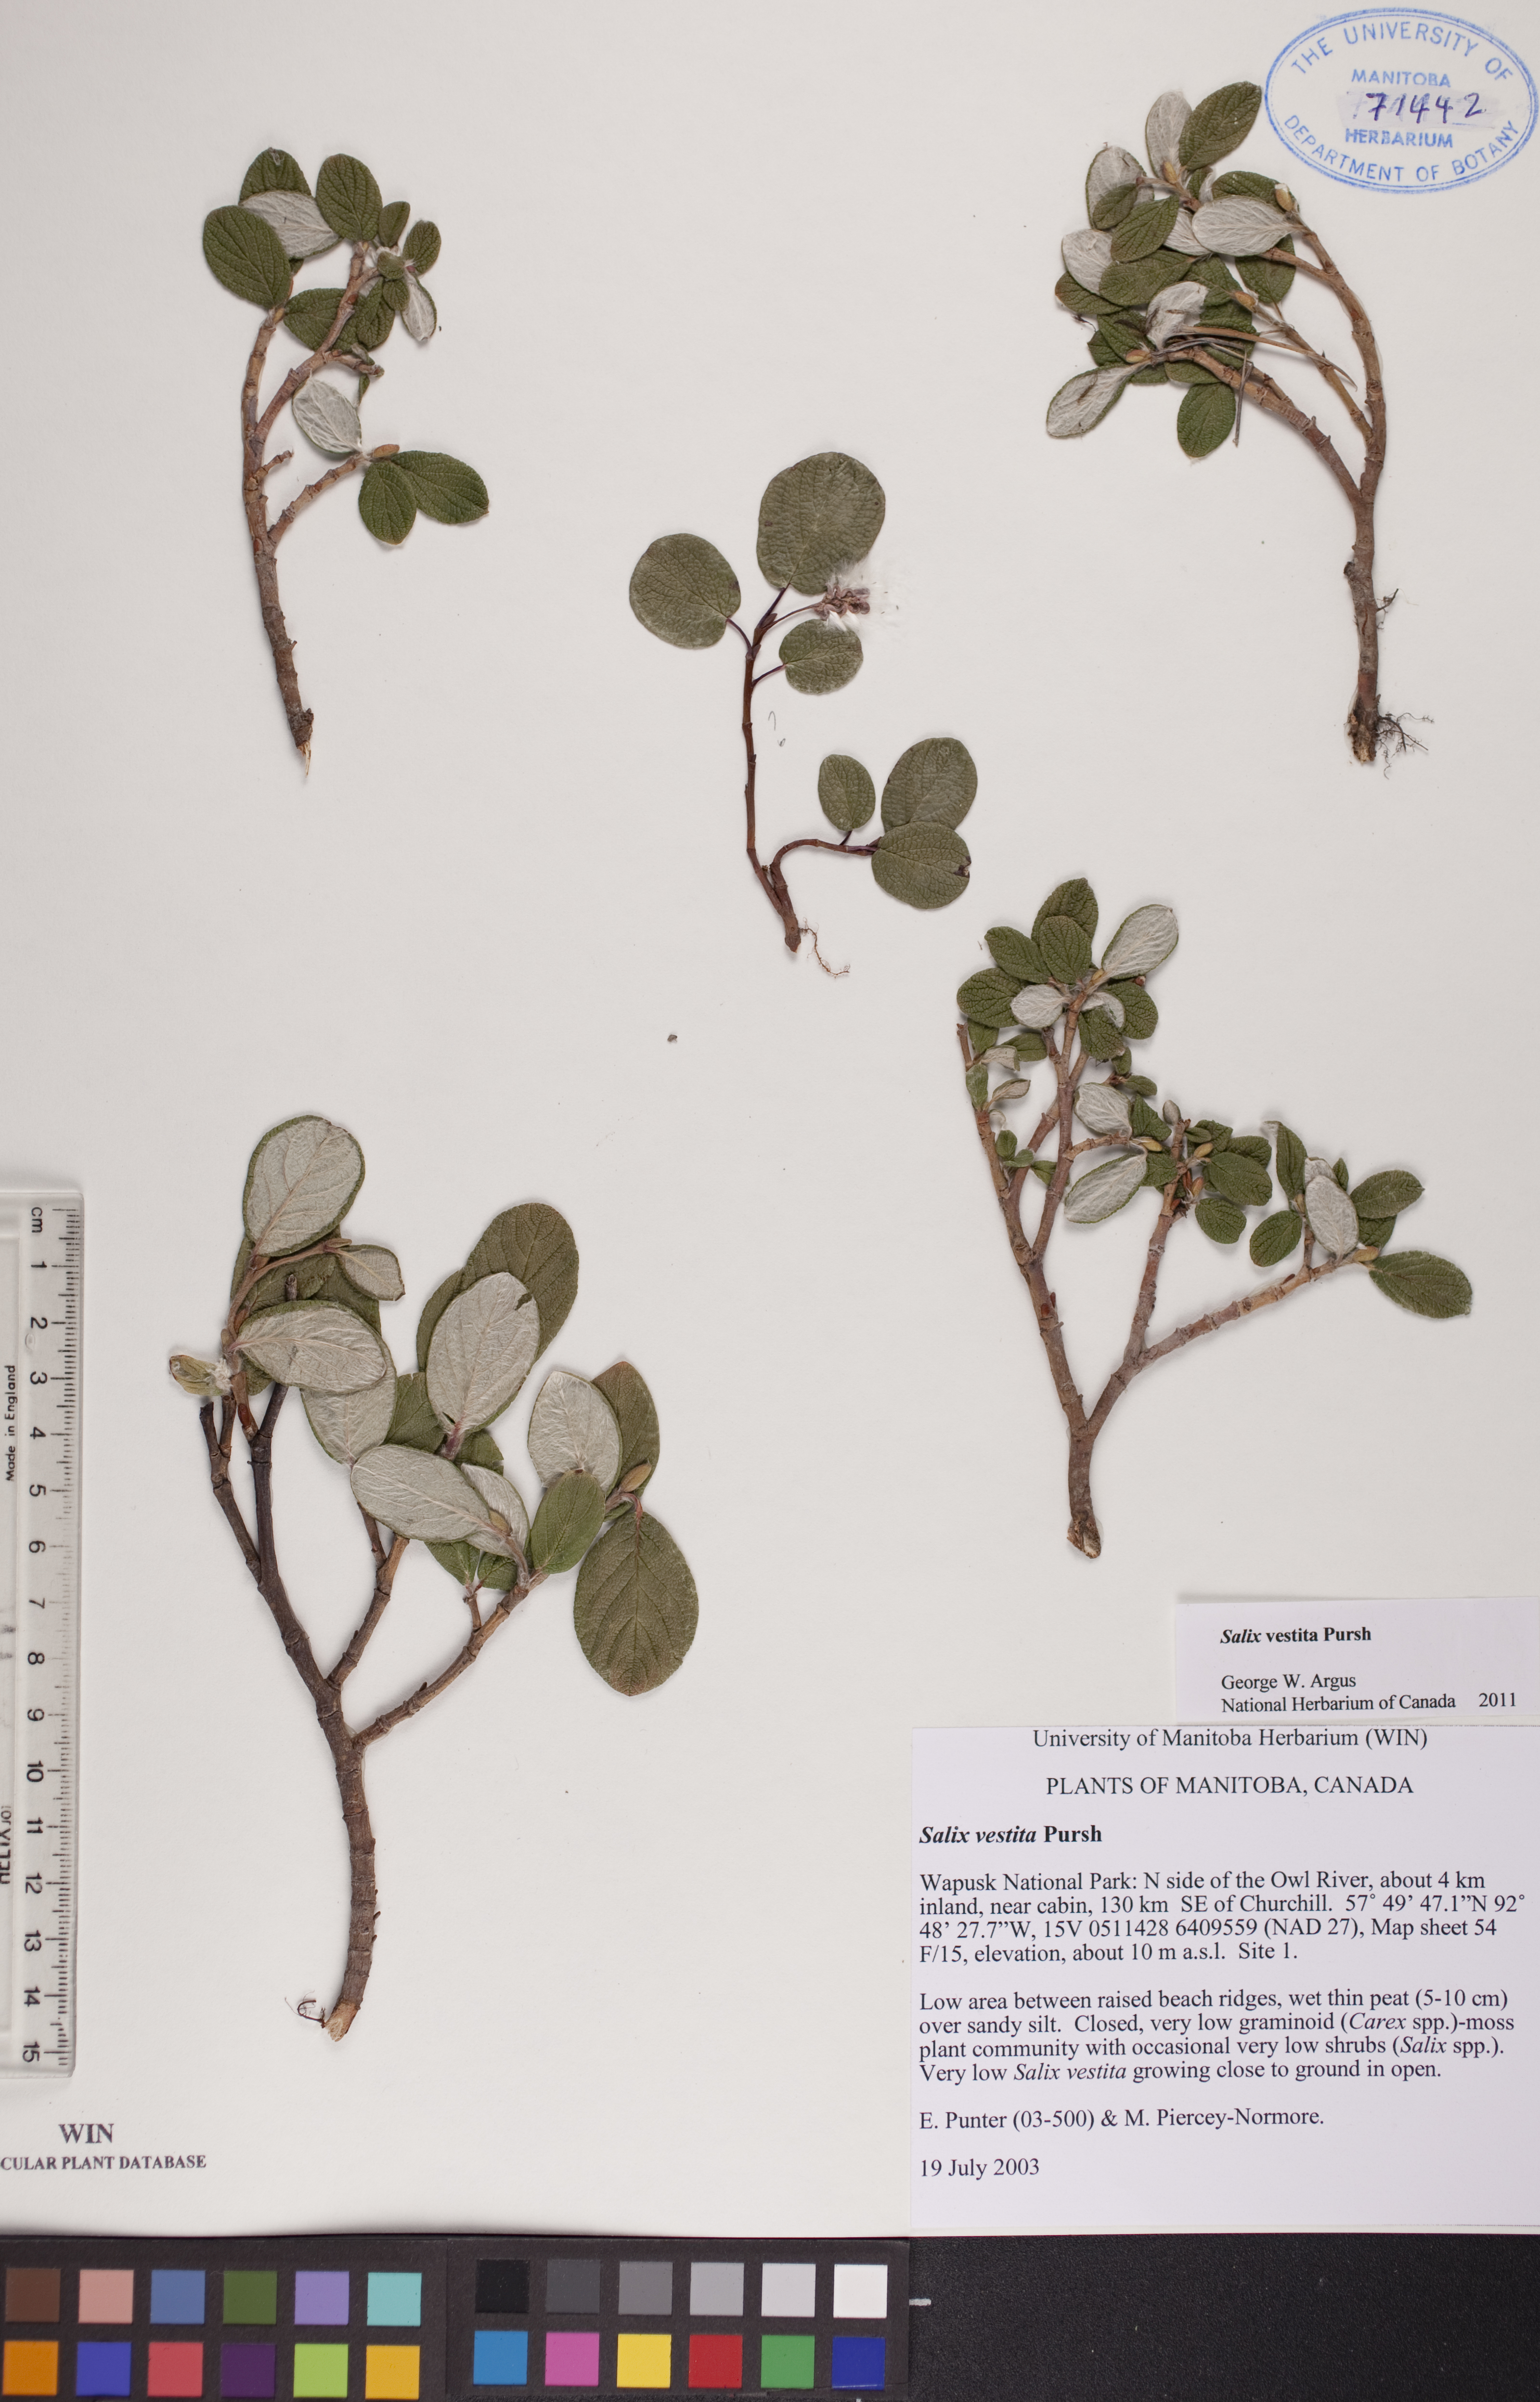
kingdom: Plantae
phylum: Tracheophyta
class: Magnoliopsida
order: Malpighiales
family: Salicaceae
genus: Salix
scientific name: Salix vestita
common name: Hairy willow
